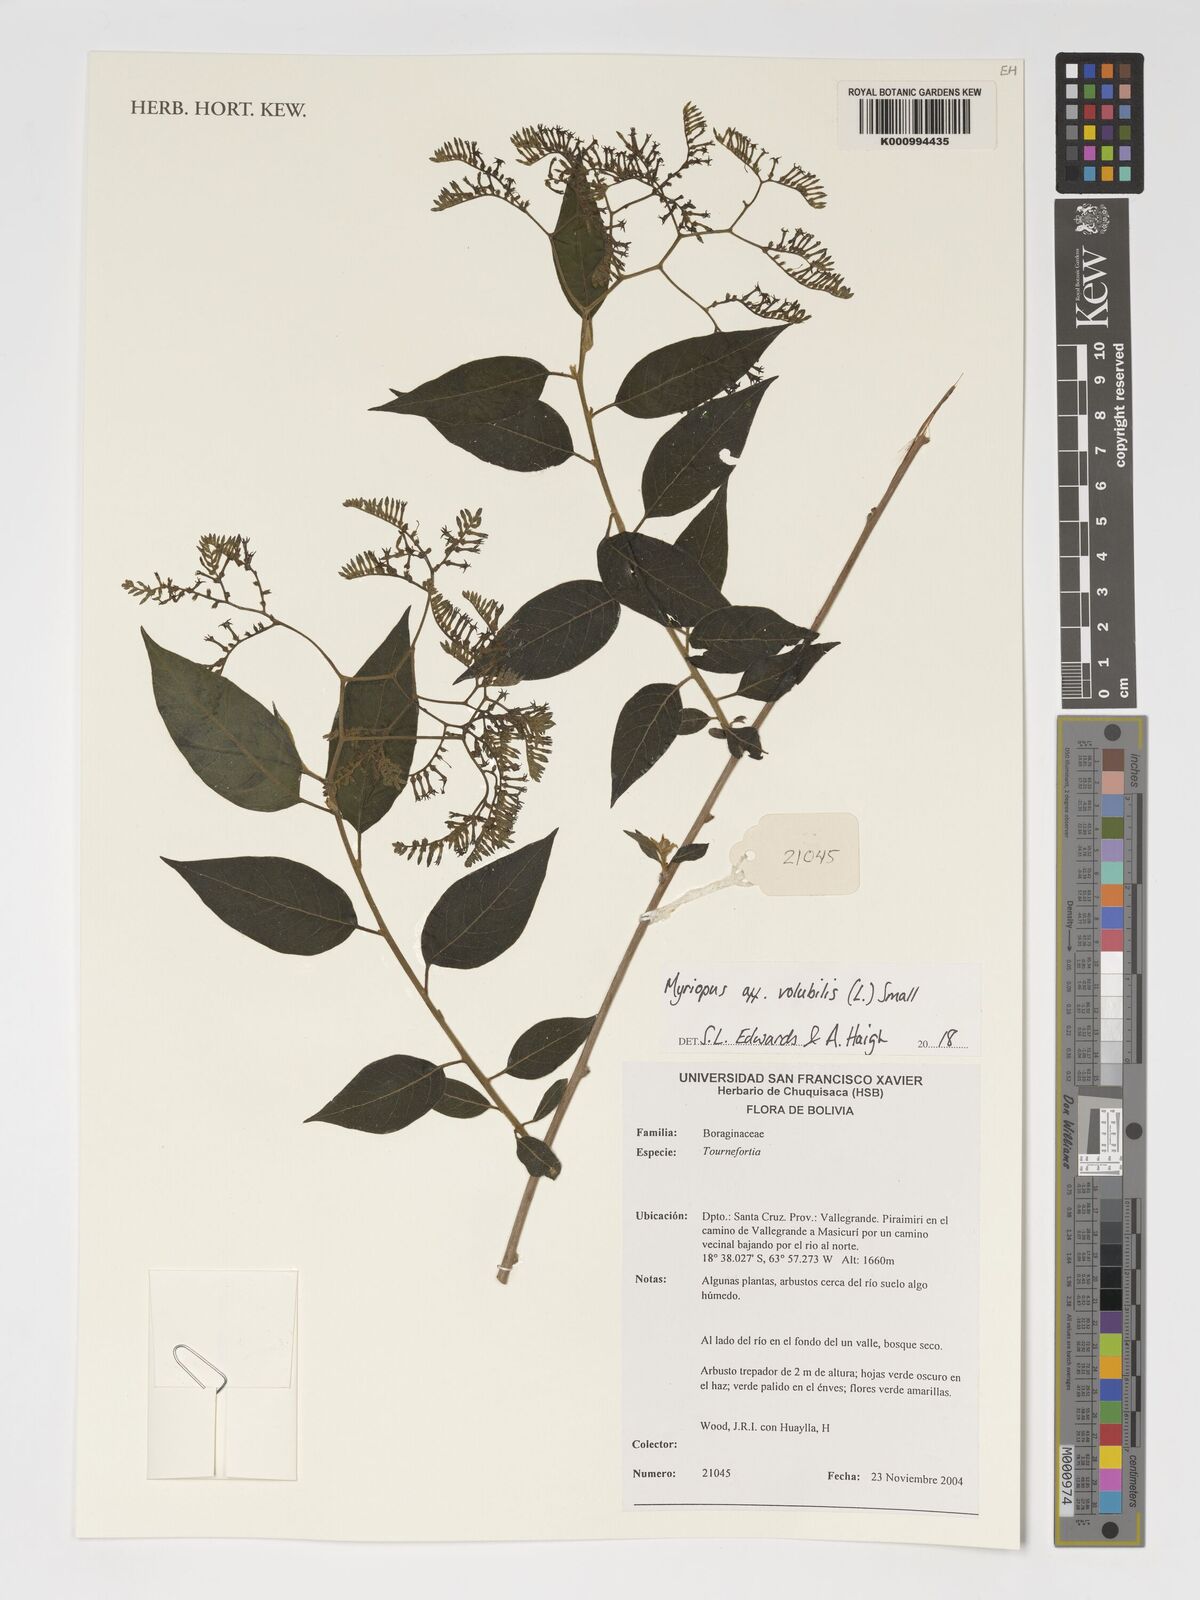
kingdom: Plantae
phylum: Tracheophyta
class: Magnoliopsida
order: Boraginales
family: Heliotropiaceae
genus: Myriopus
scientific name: Myriopus volubilis
